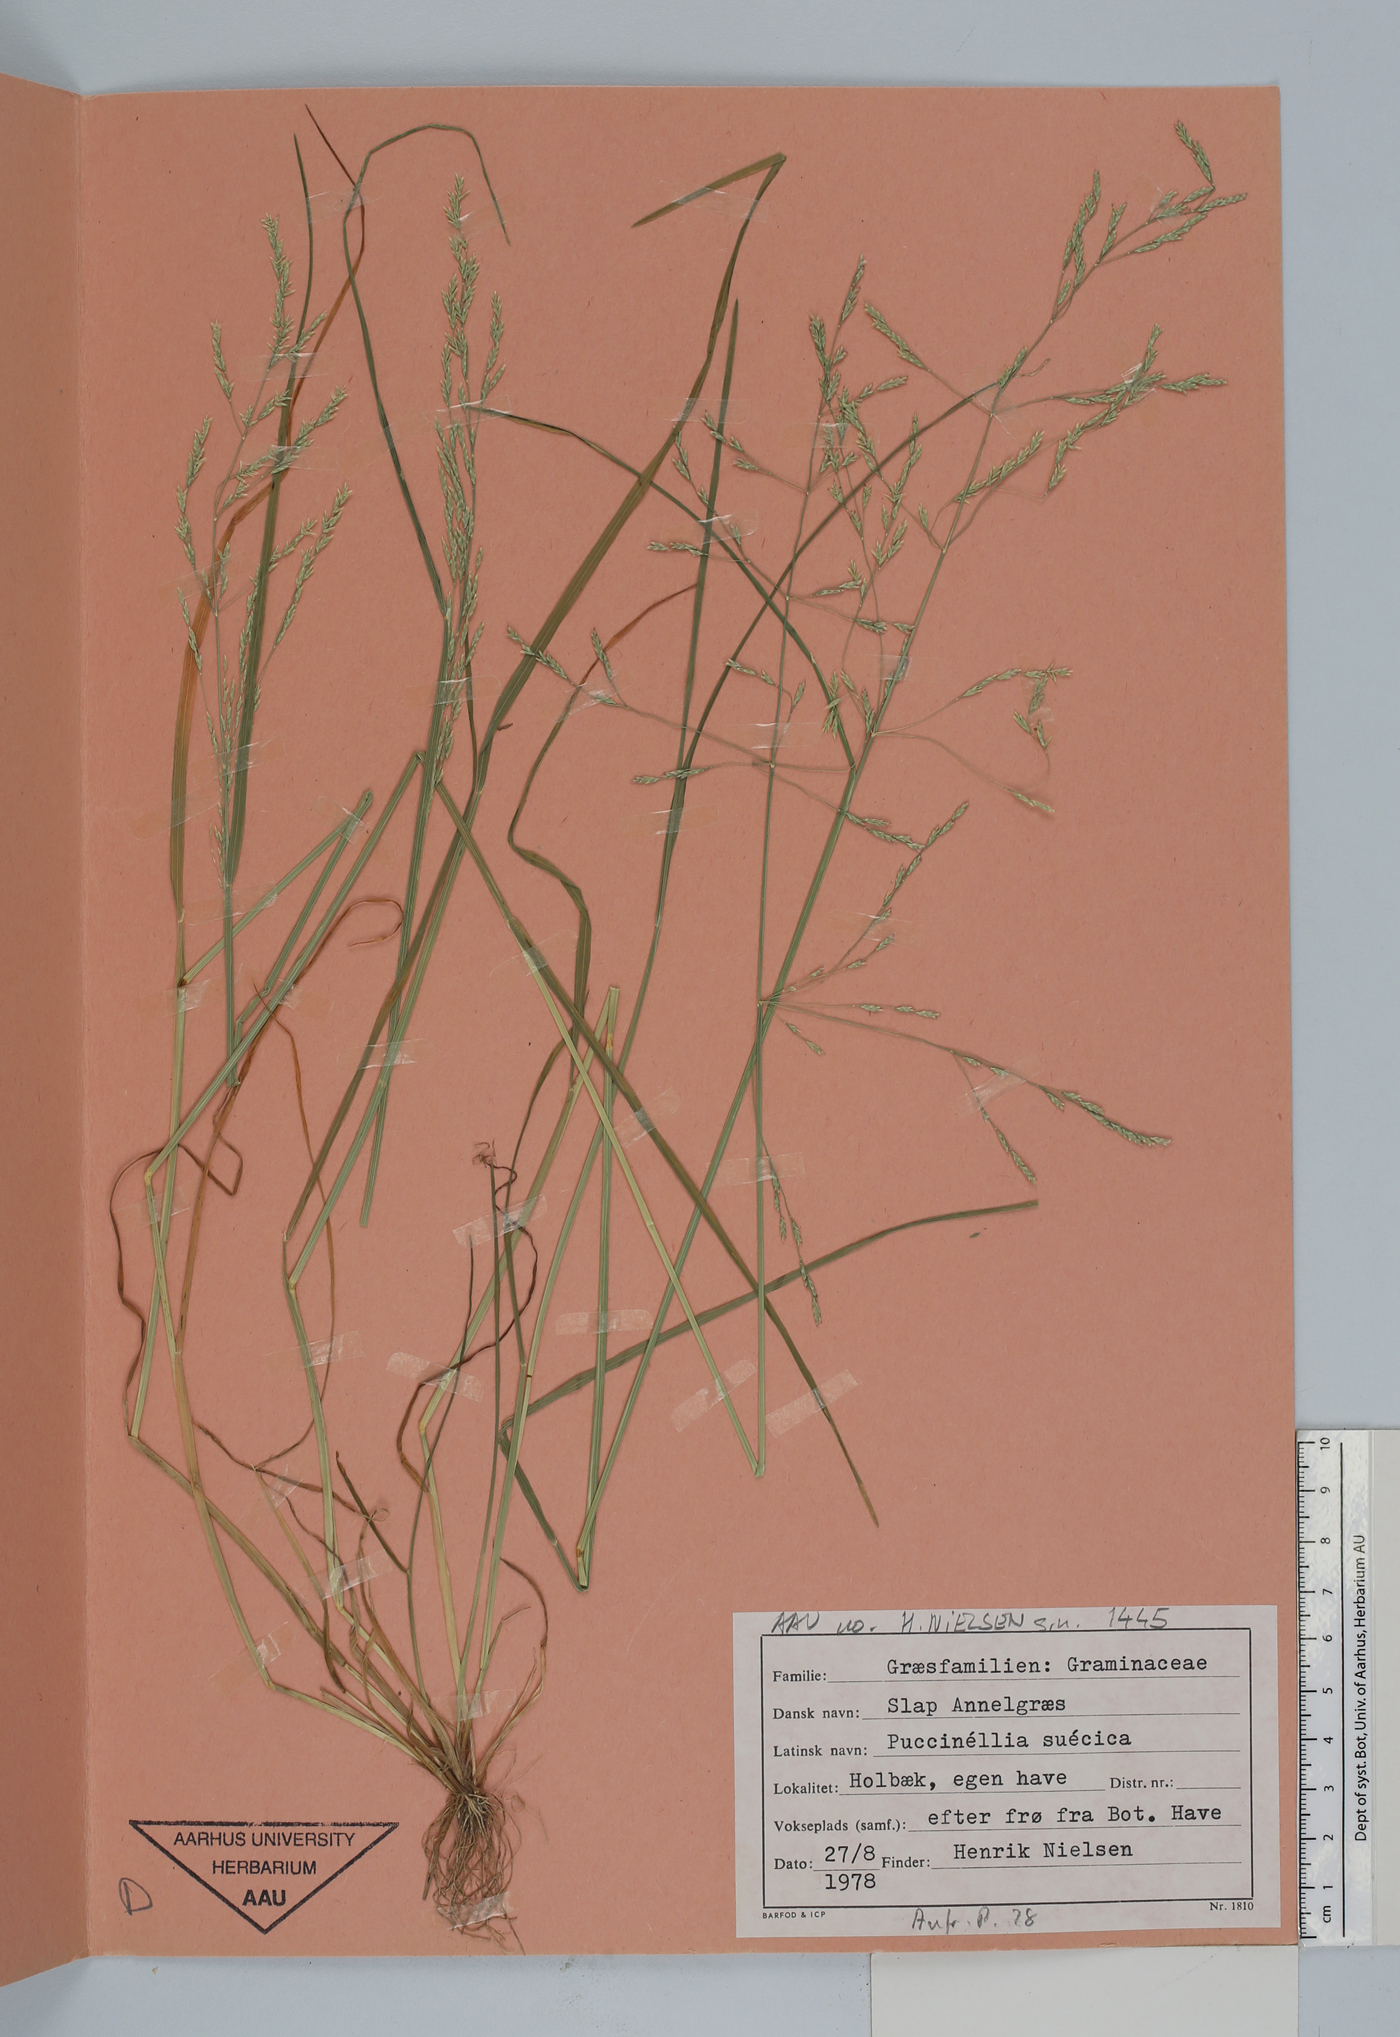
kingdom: Plantae
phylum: Tracheophyta
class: Liliopsida
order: Poales
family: Poaceae
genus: Puccinellia
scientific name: Puccinellia distans
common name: Weeping alkaligrass
